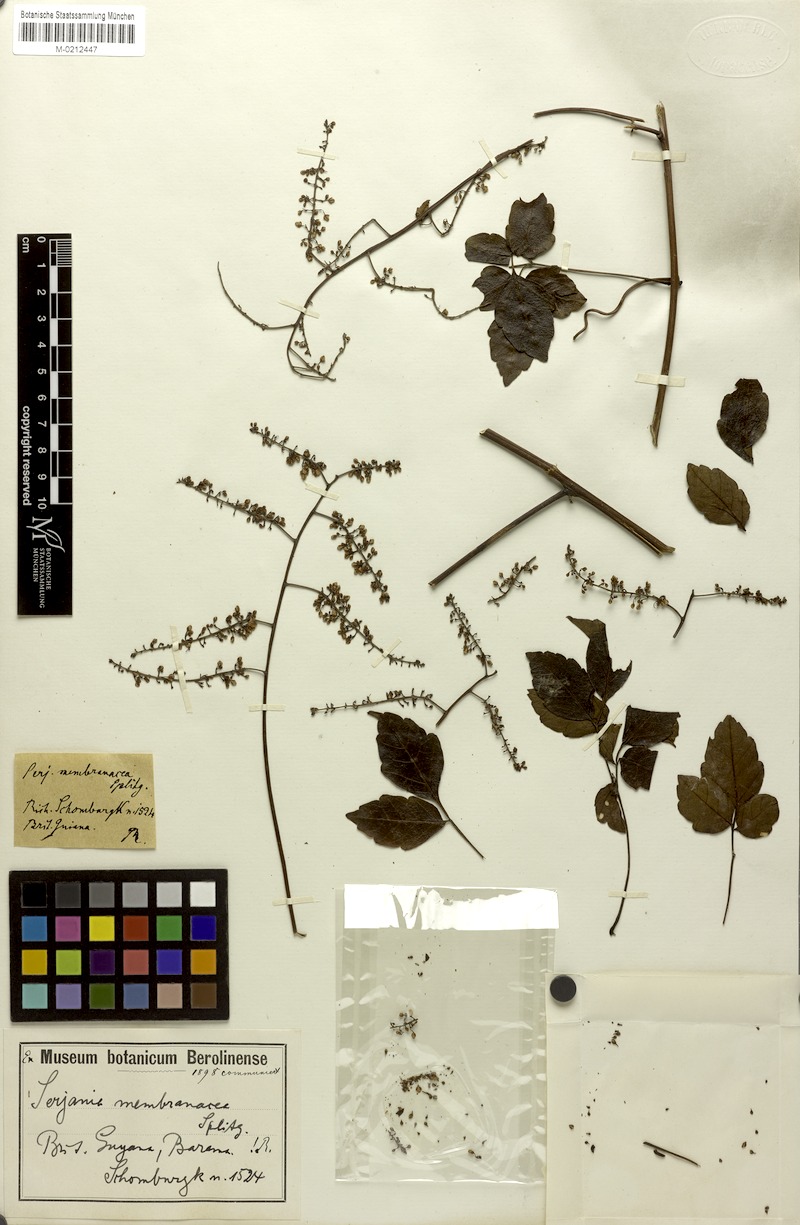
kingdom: Plantae
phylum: Tracheophyta
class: Magnoliopsida
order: Sapindales
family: Sapindaceae
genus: Serjania
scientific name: Serjania membranacea
